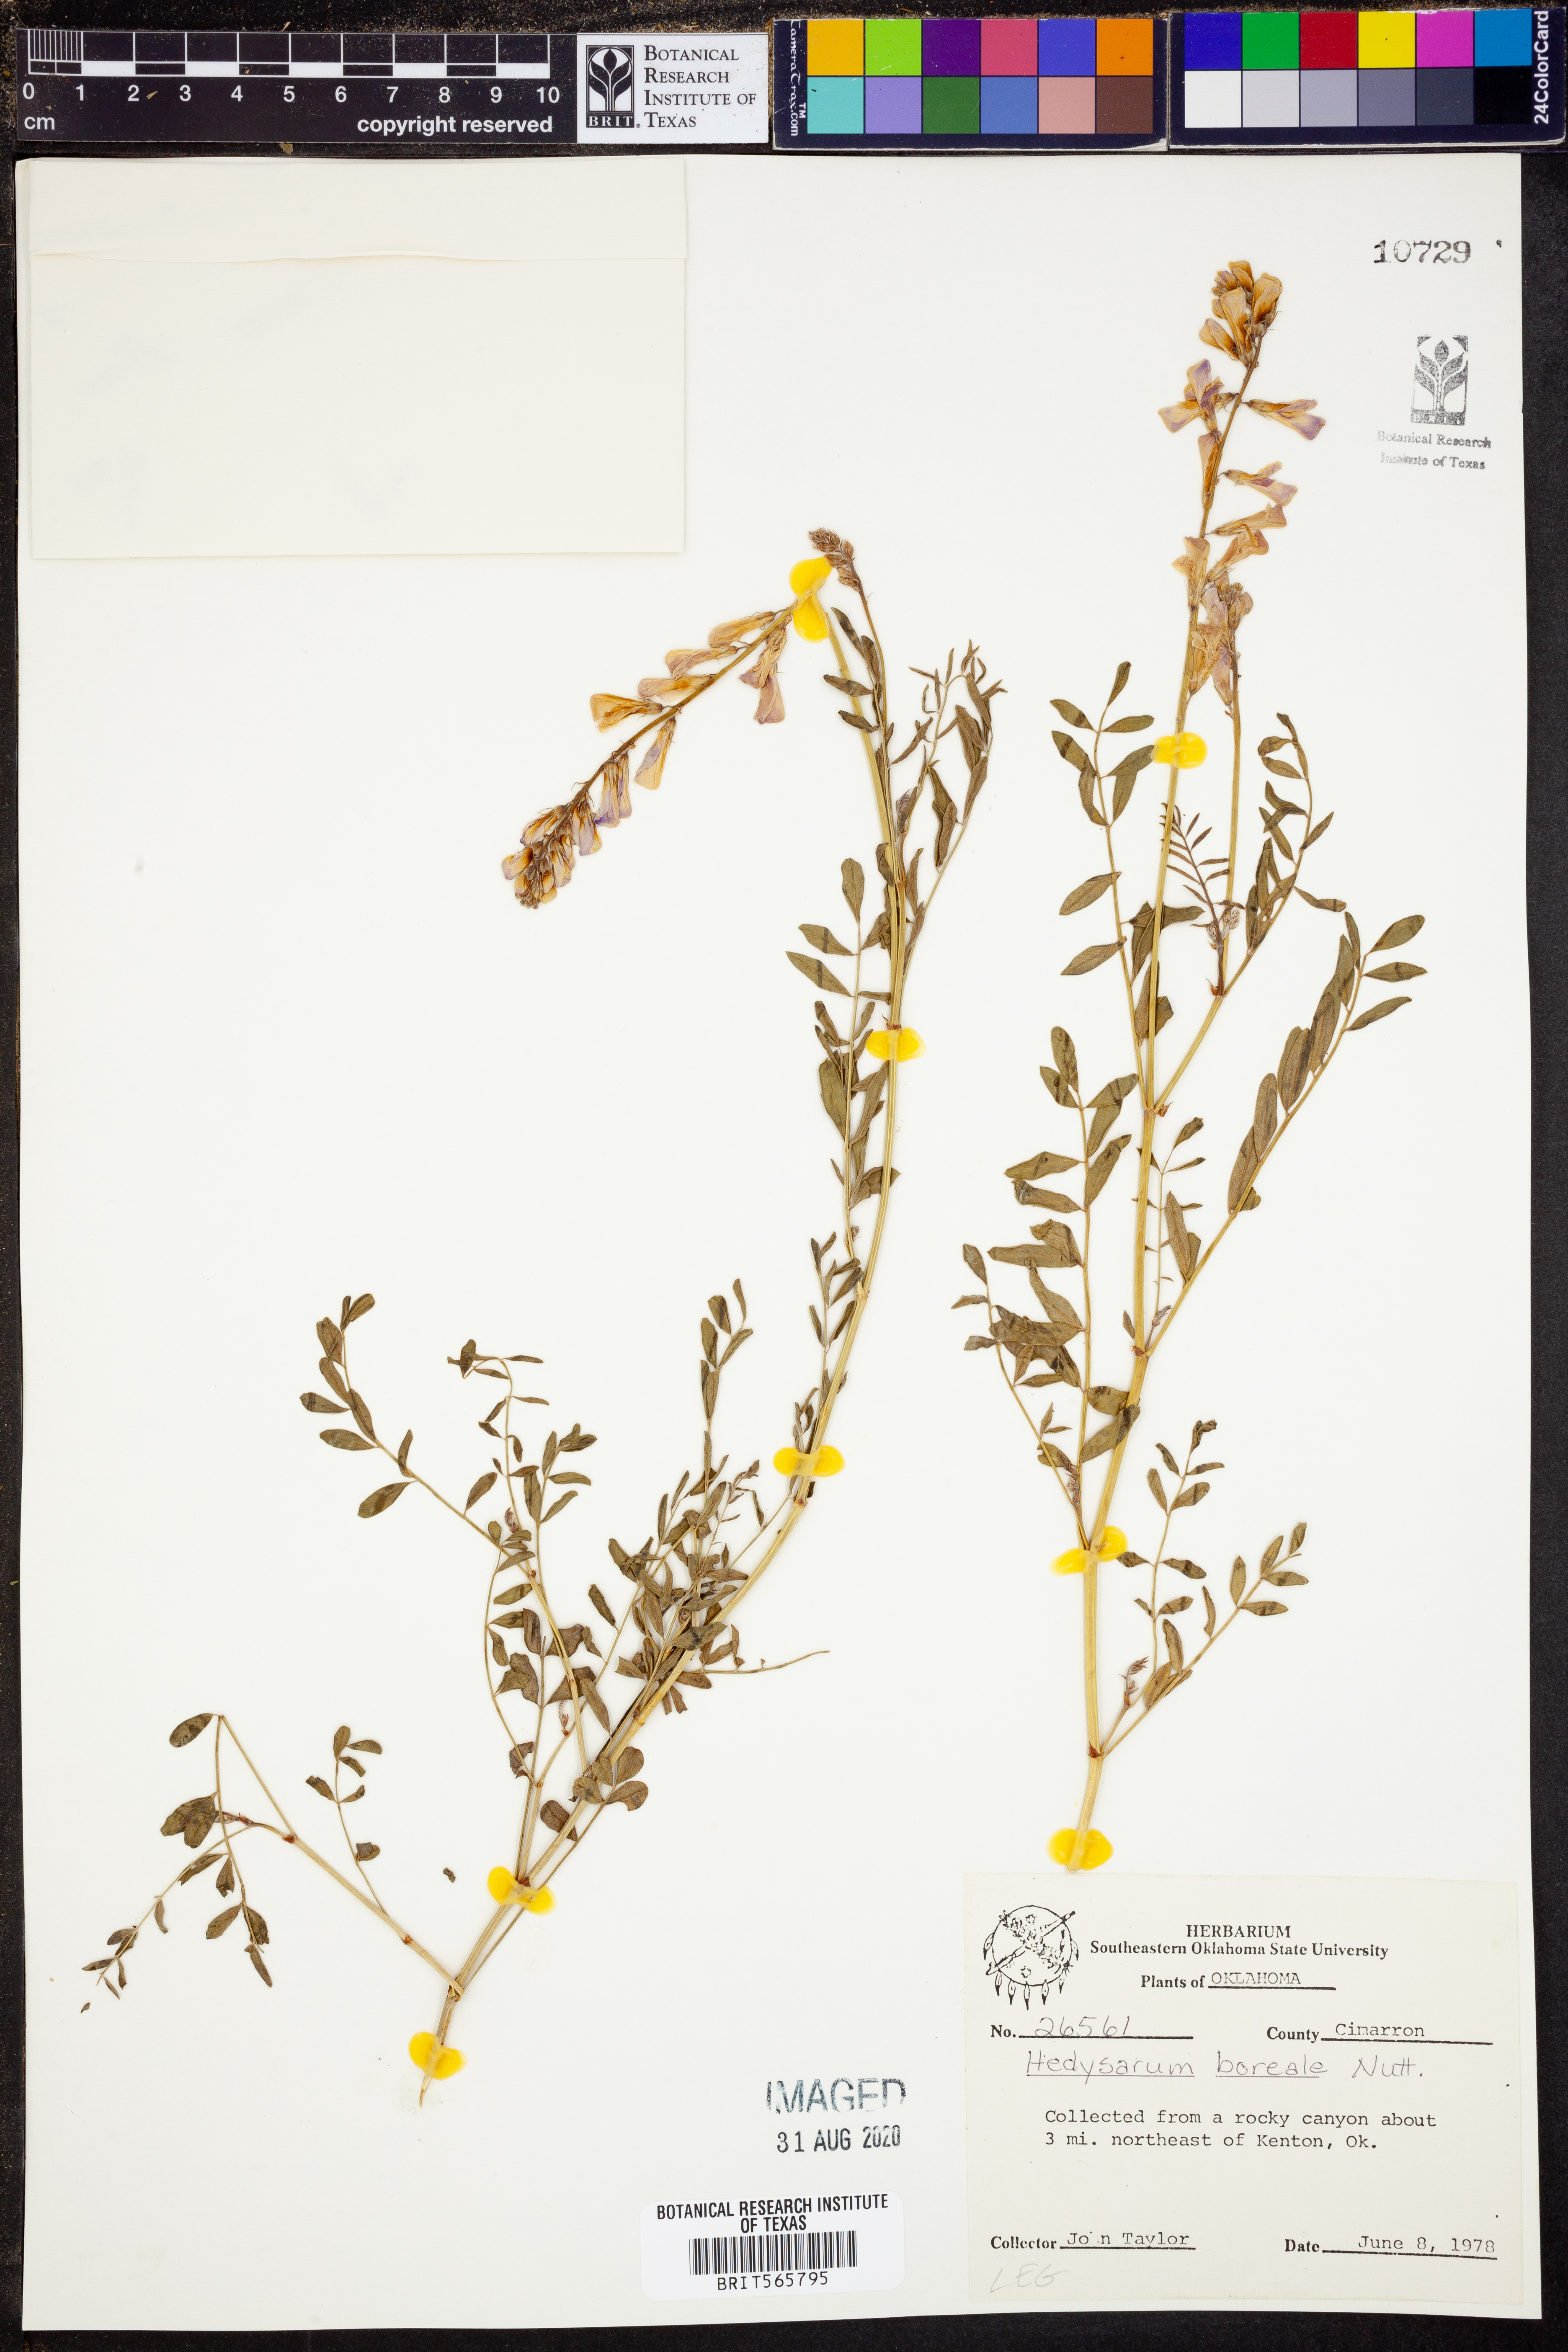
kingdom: Plantae
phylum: Tracheophyta
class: Magnoliopsida
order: Fabales
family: Fabaceae
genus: Hedysarum
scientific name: Hedysarum boreale
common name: Northern sweet-vetch
